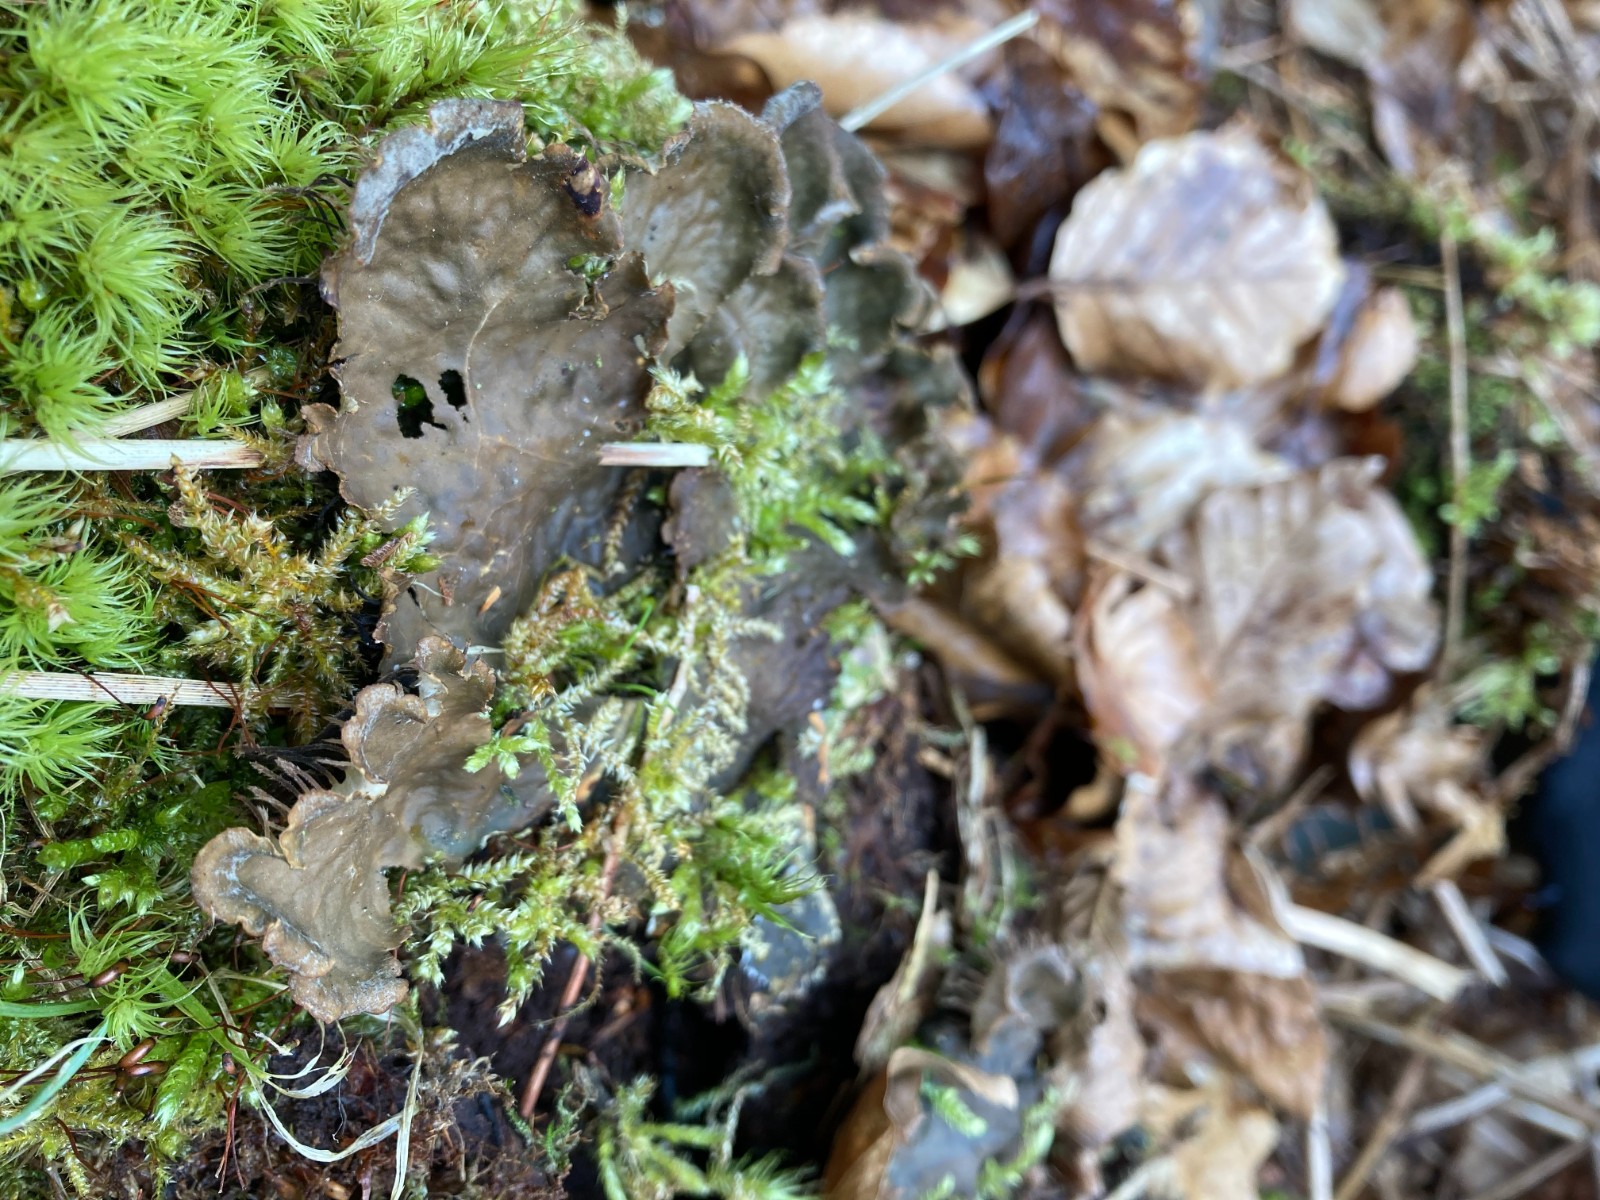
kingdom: Fungi
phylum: Ascomycota
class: Lecanoromycetes
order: Peltigerales
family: Peltigeraceae
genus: Peltigera
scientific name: Peltigera membranacea
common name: tynd skjoldlav
